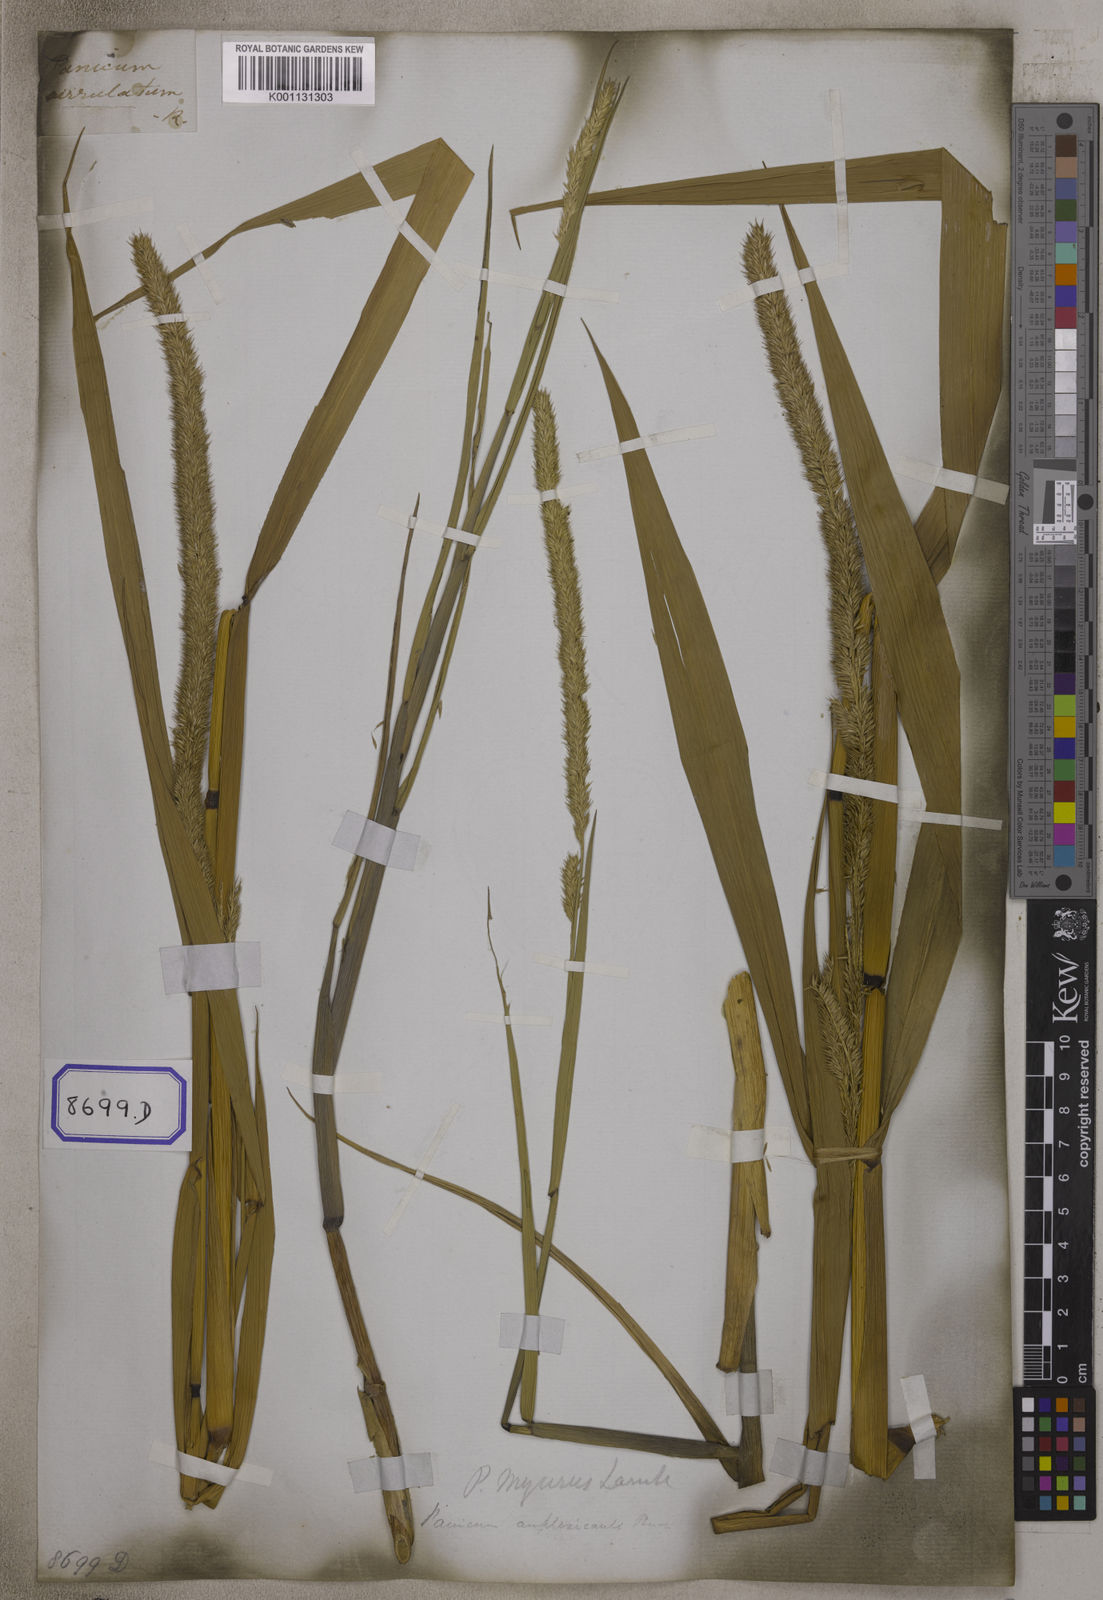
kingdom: Plantae
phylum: Tracheophyta
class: Liliopsida
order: Poales
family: Poaceae
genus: Panicum
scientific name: Panicum
